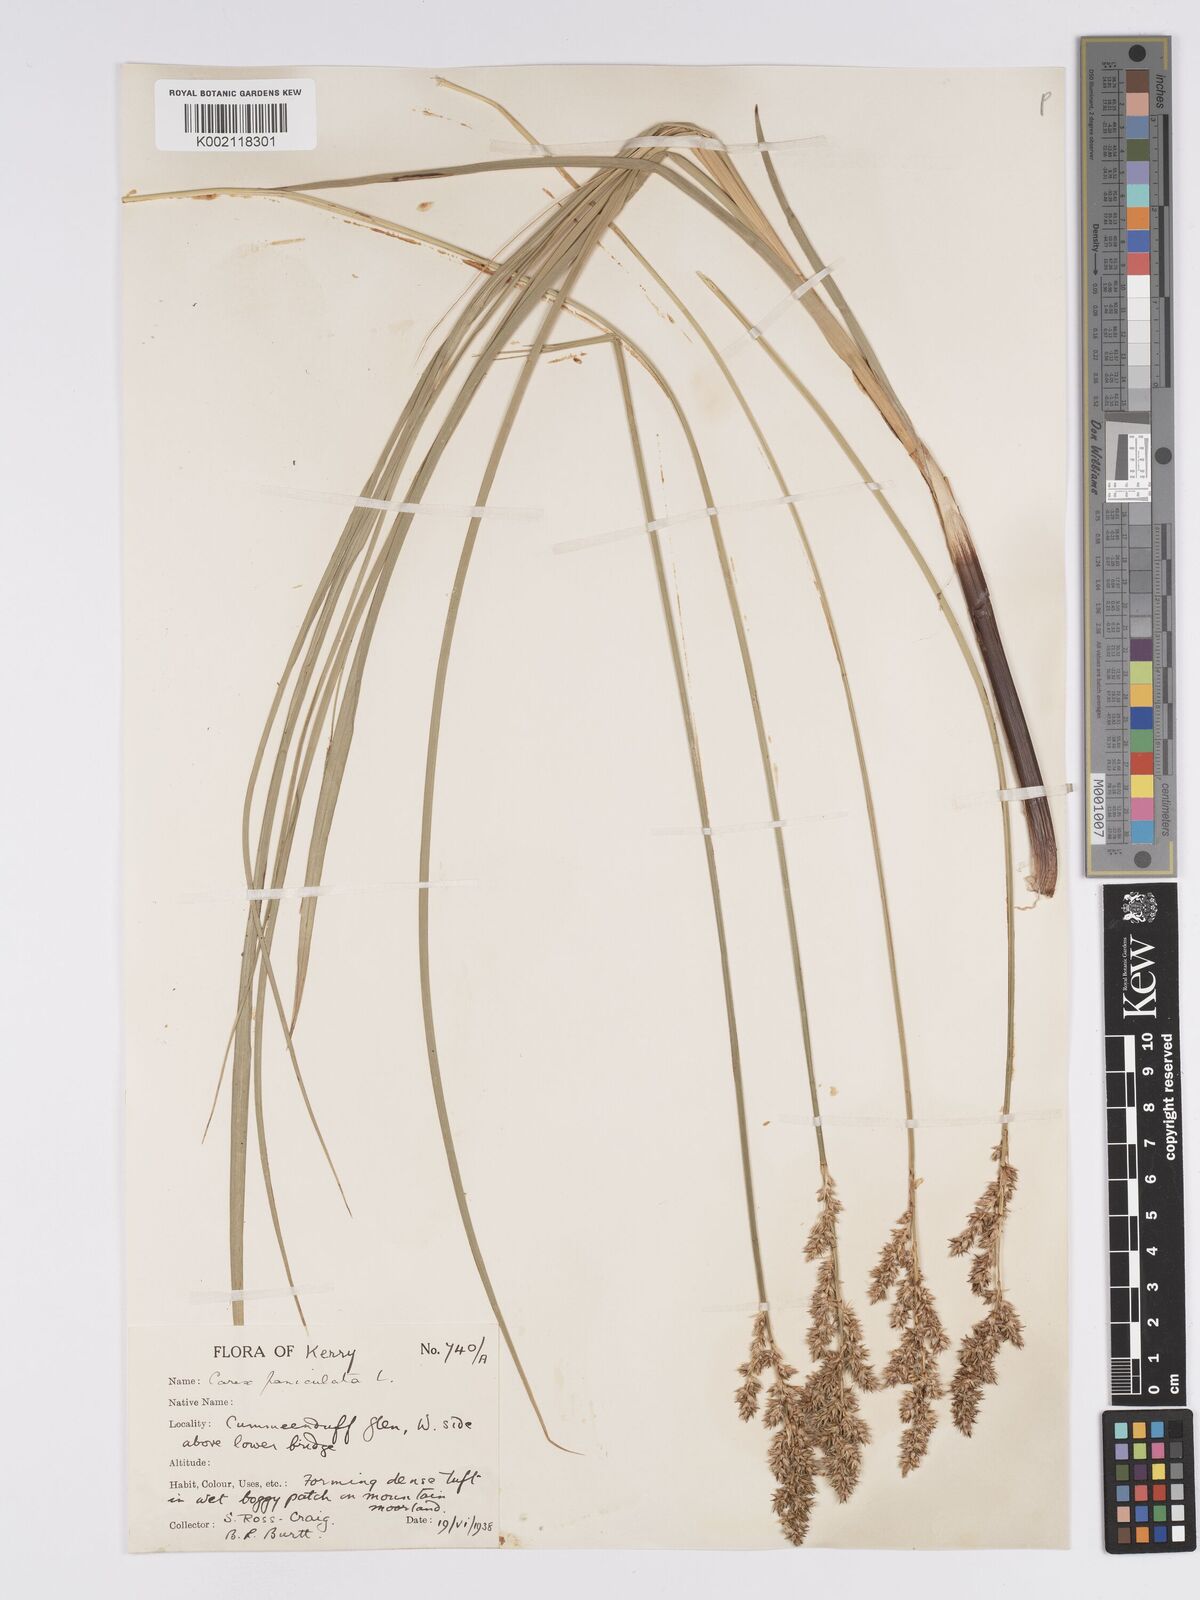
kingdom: Plantae
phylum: Tracheophyta
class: Liliopsida
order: Poales
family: Cyperaceae
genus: Carex
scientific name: Carex paniculata
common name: Greater tussock-sedge
